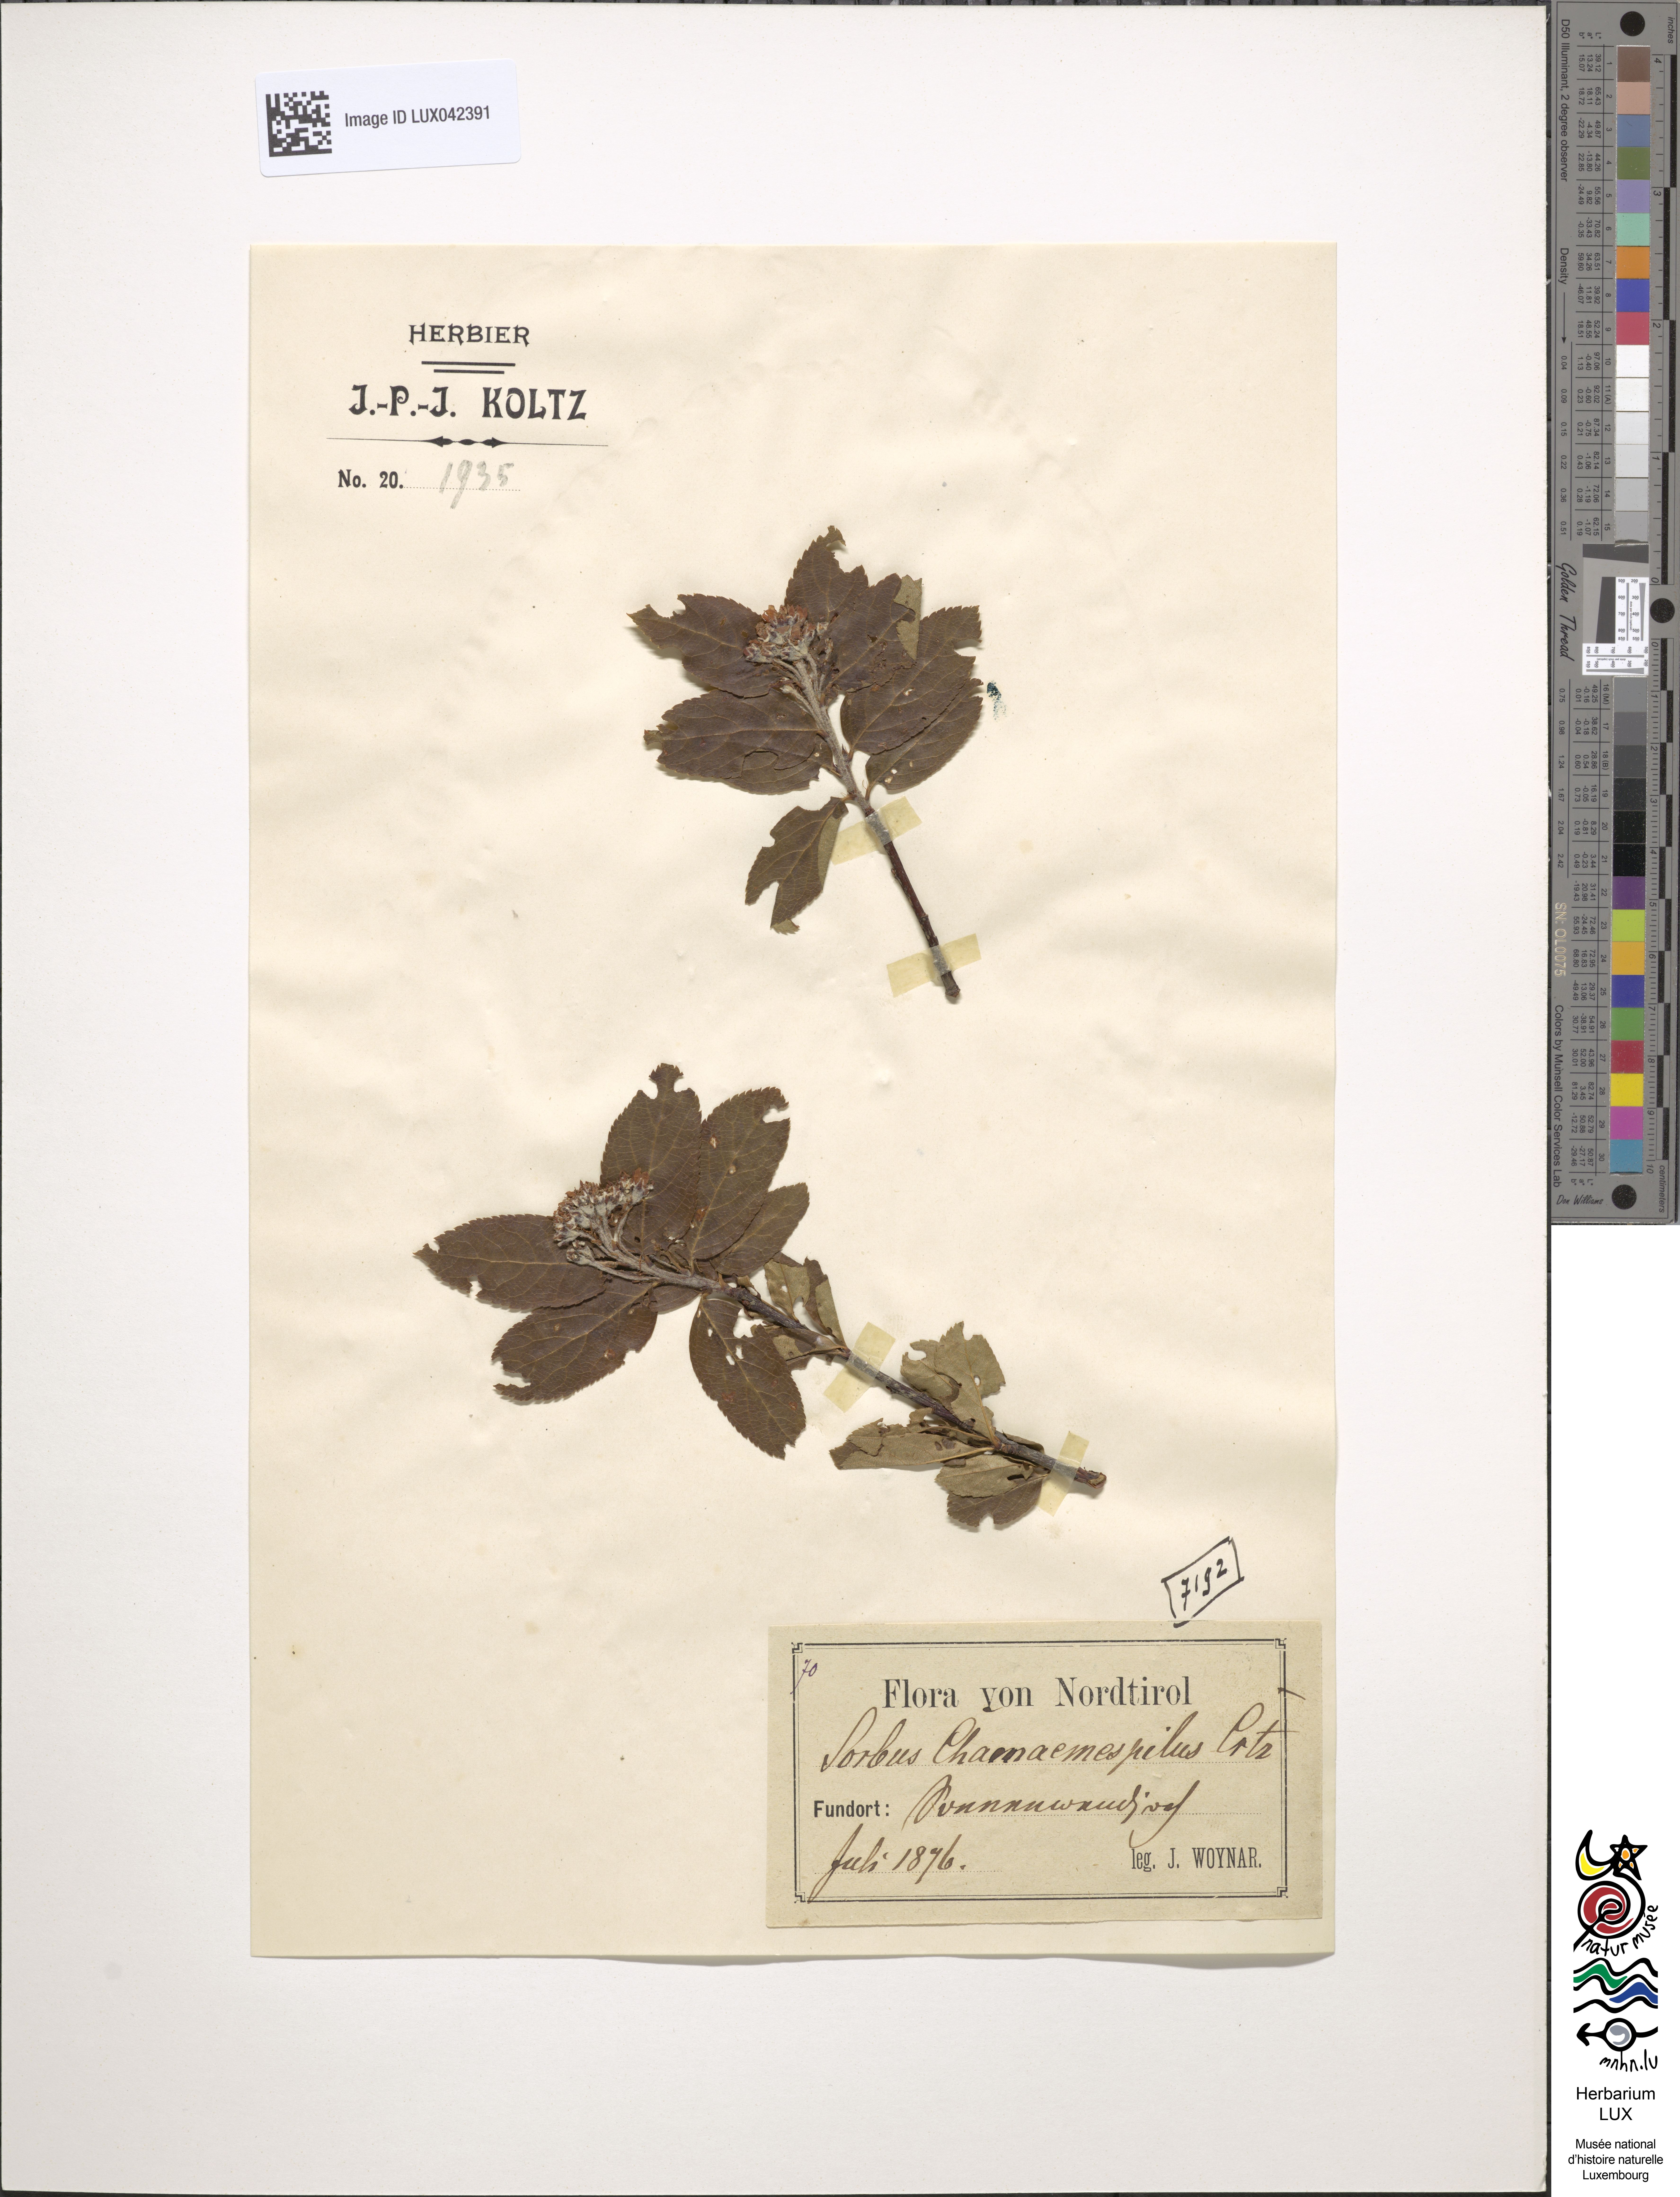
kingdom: Plantae
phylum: Tracheophyta
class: Magnoliopsida
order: Rosales
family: Rosaceae
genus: Chamaemespilus
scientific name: Chamaemespilus alpina
